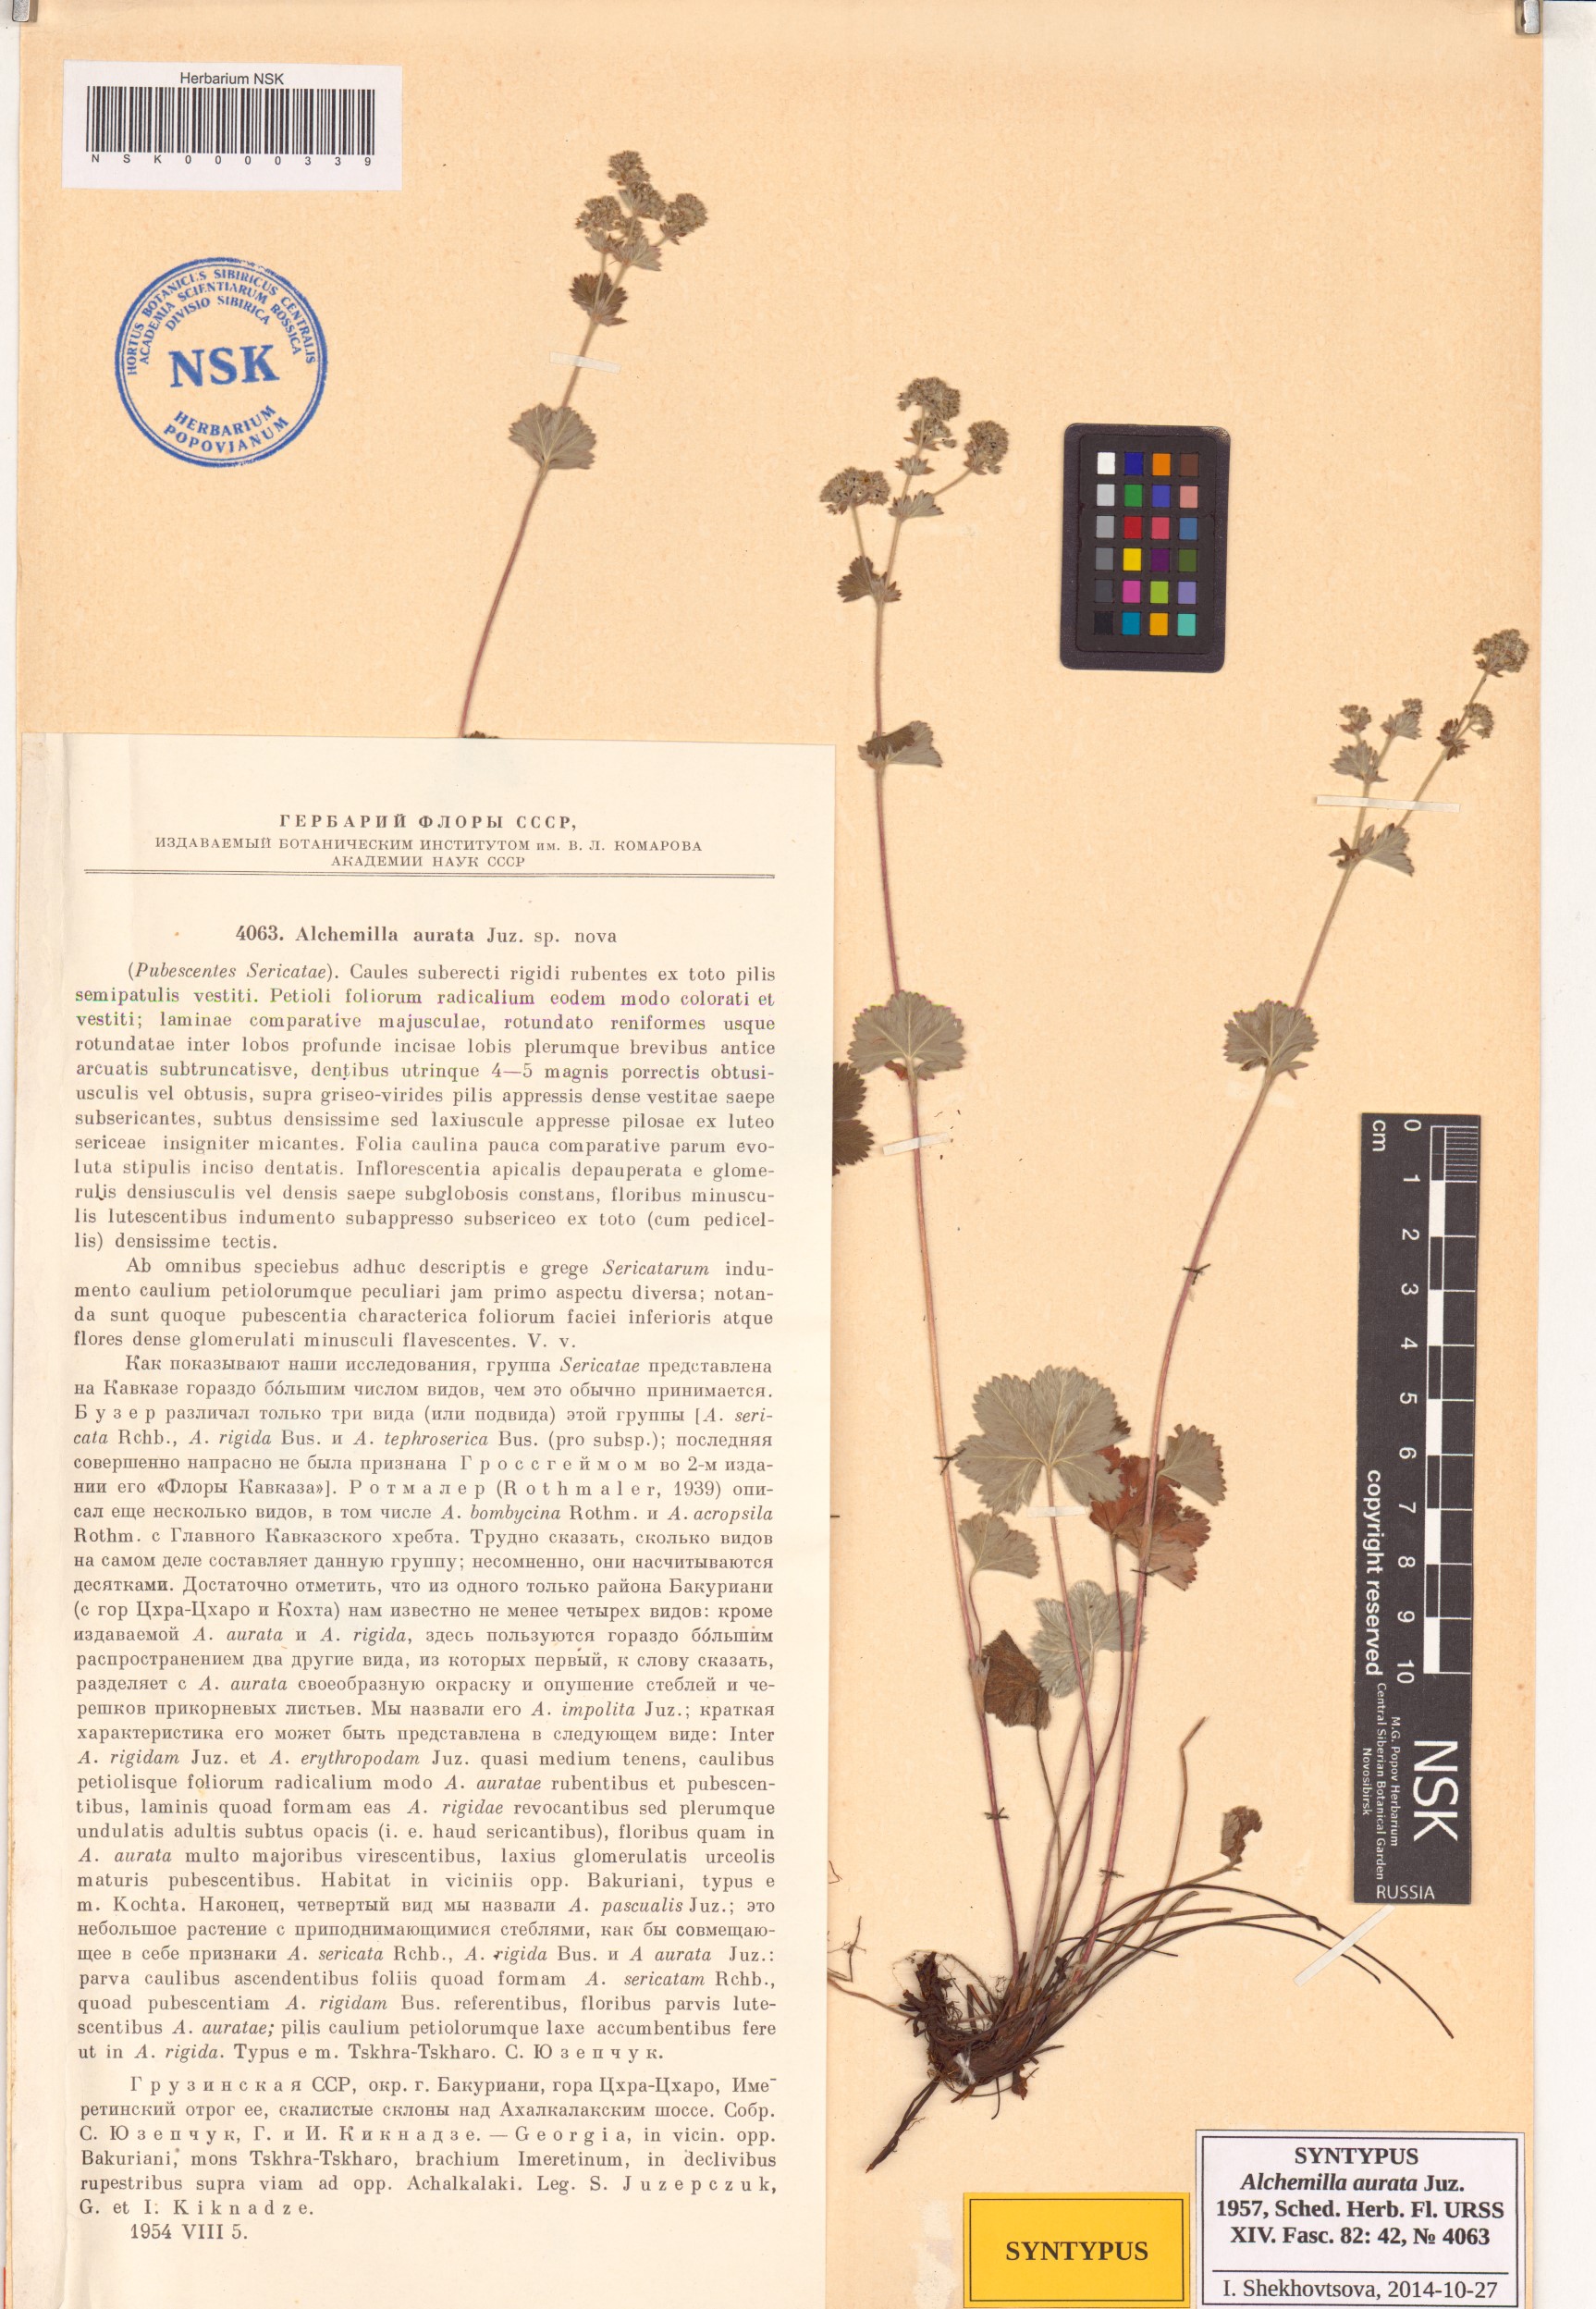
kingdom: Plantae
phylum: Tracheophyta
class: Magnoliopsida
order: Rosales
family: Rosaceae
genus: Alchemilla
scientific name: Alchemilla aurata
